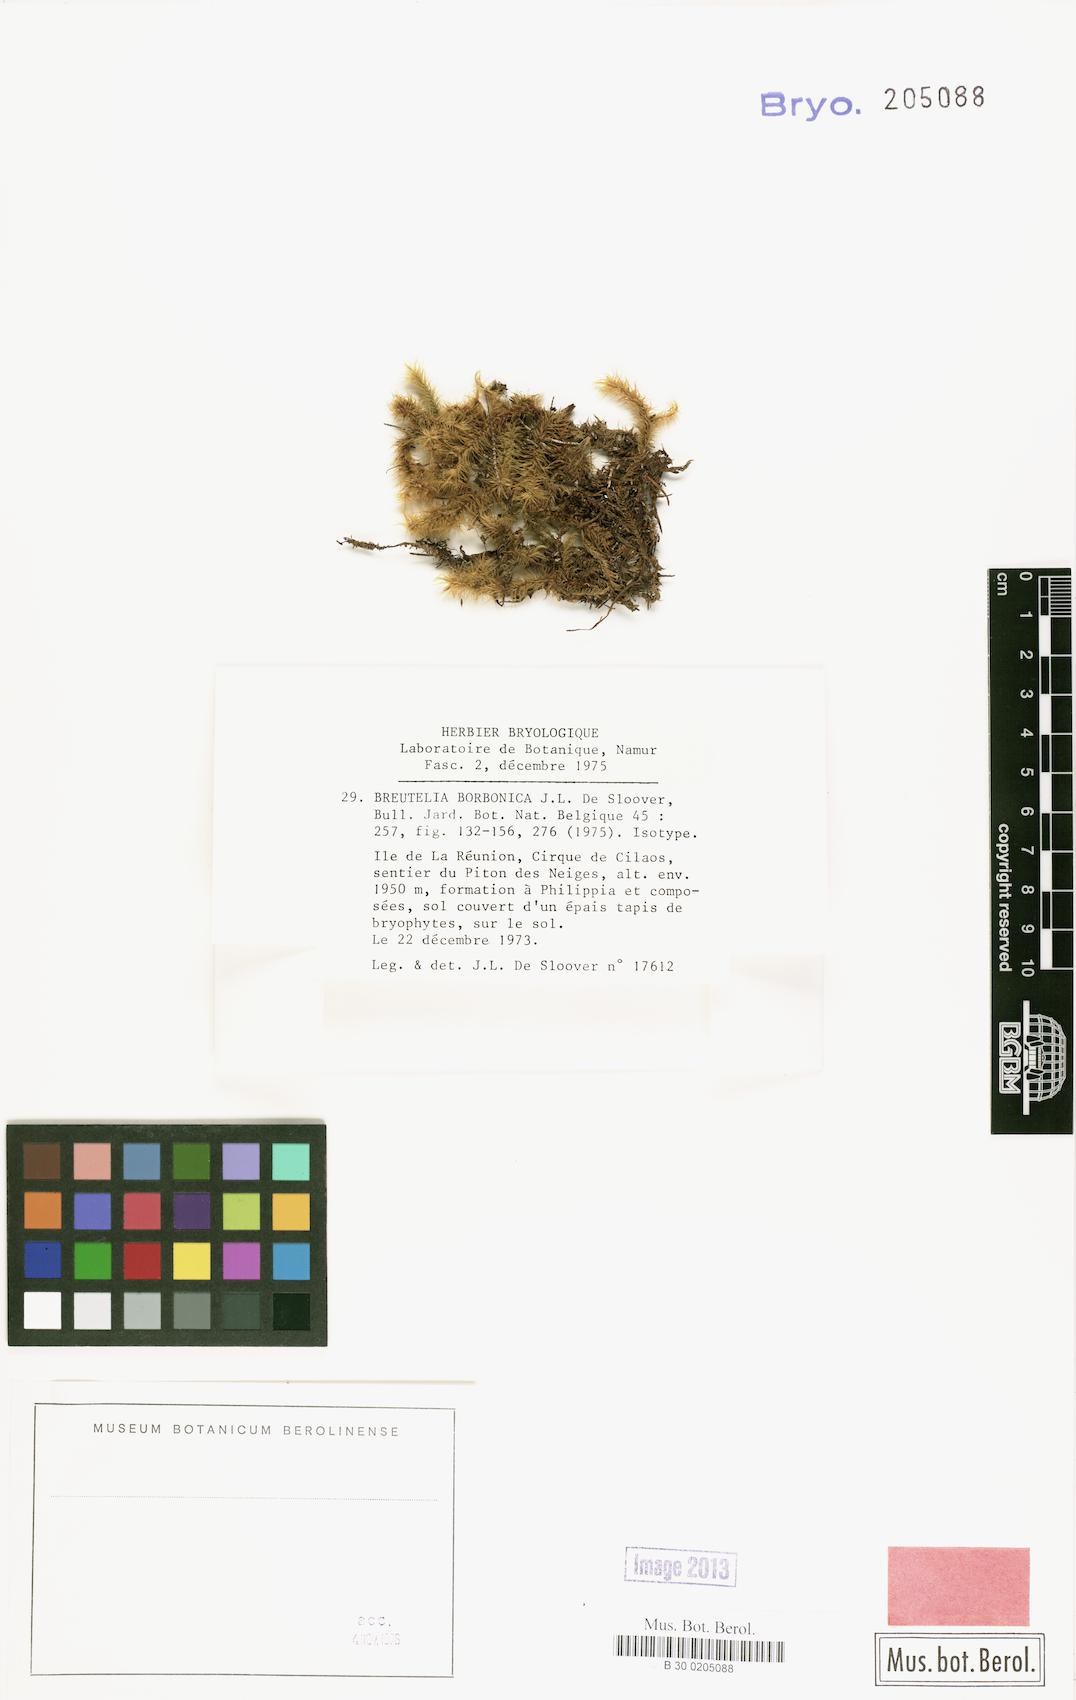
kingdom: Plantae
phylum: Bryophyta
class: Bryopsida
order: Bartramiales
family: Bartramiaceae
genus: Breutelia
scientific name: Breutelia borbonica
